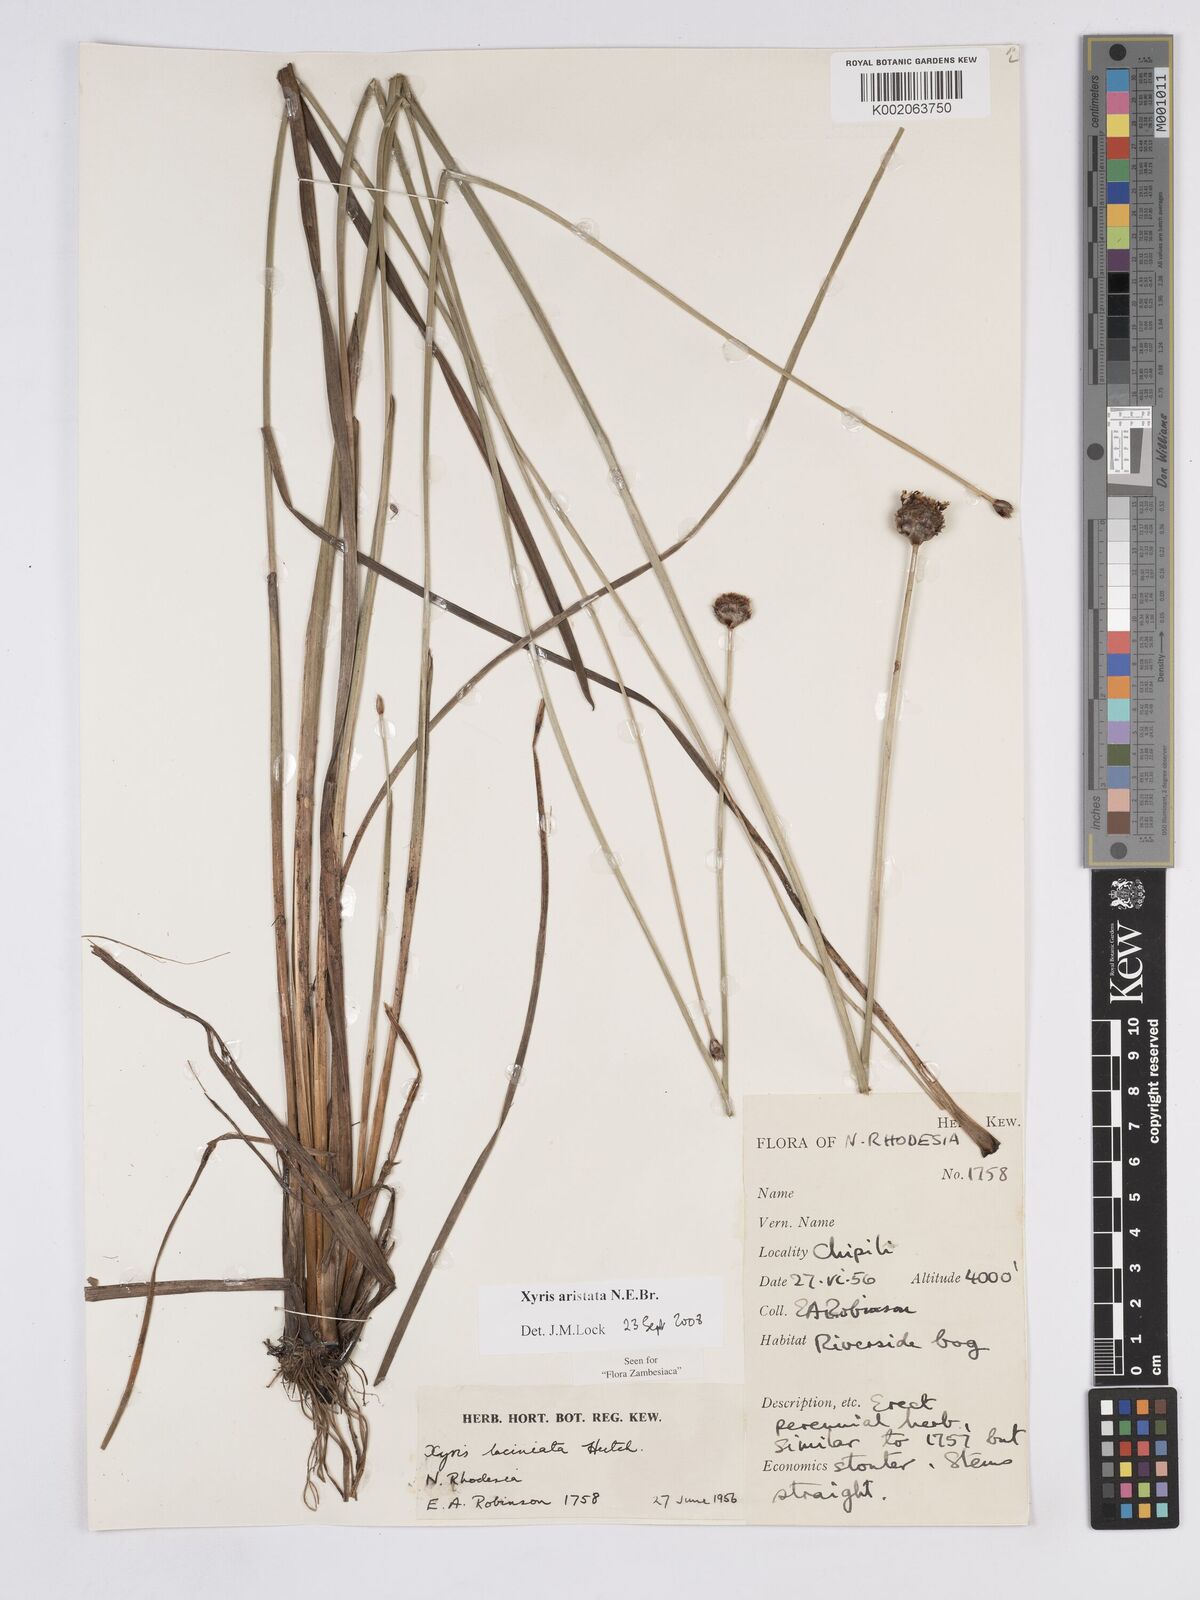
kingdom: Plantae
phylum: Tracheophyta
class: Liliopsida
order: Poales
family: Xyridaceae
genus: Xyris
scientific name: Xyris aristata
